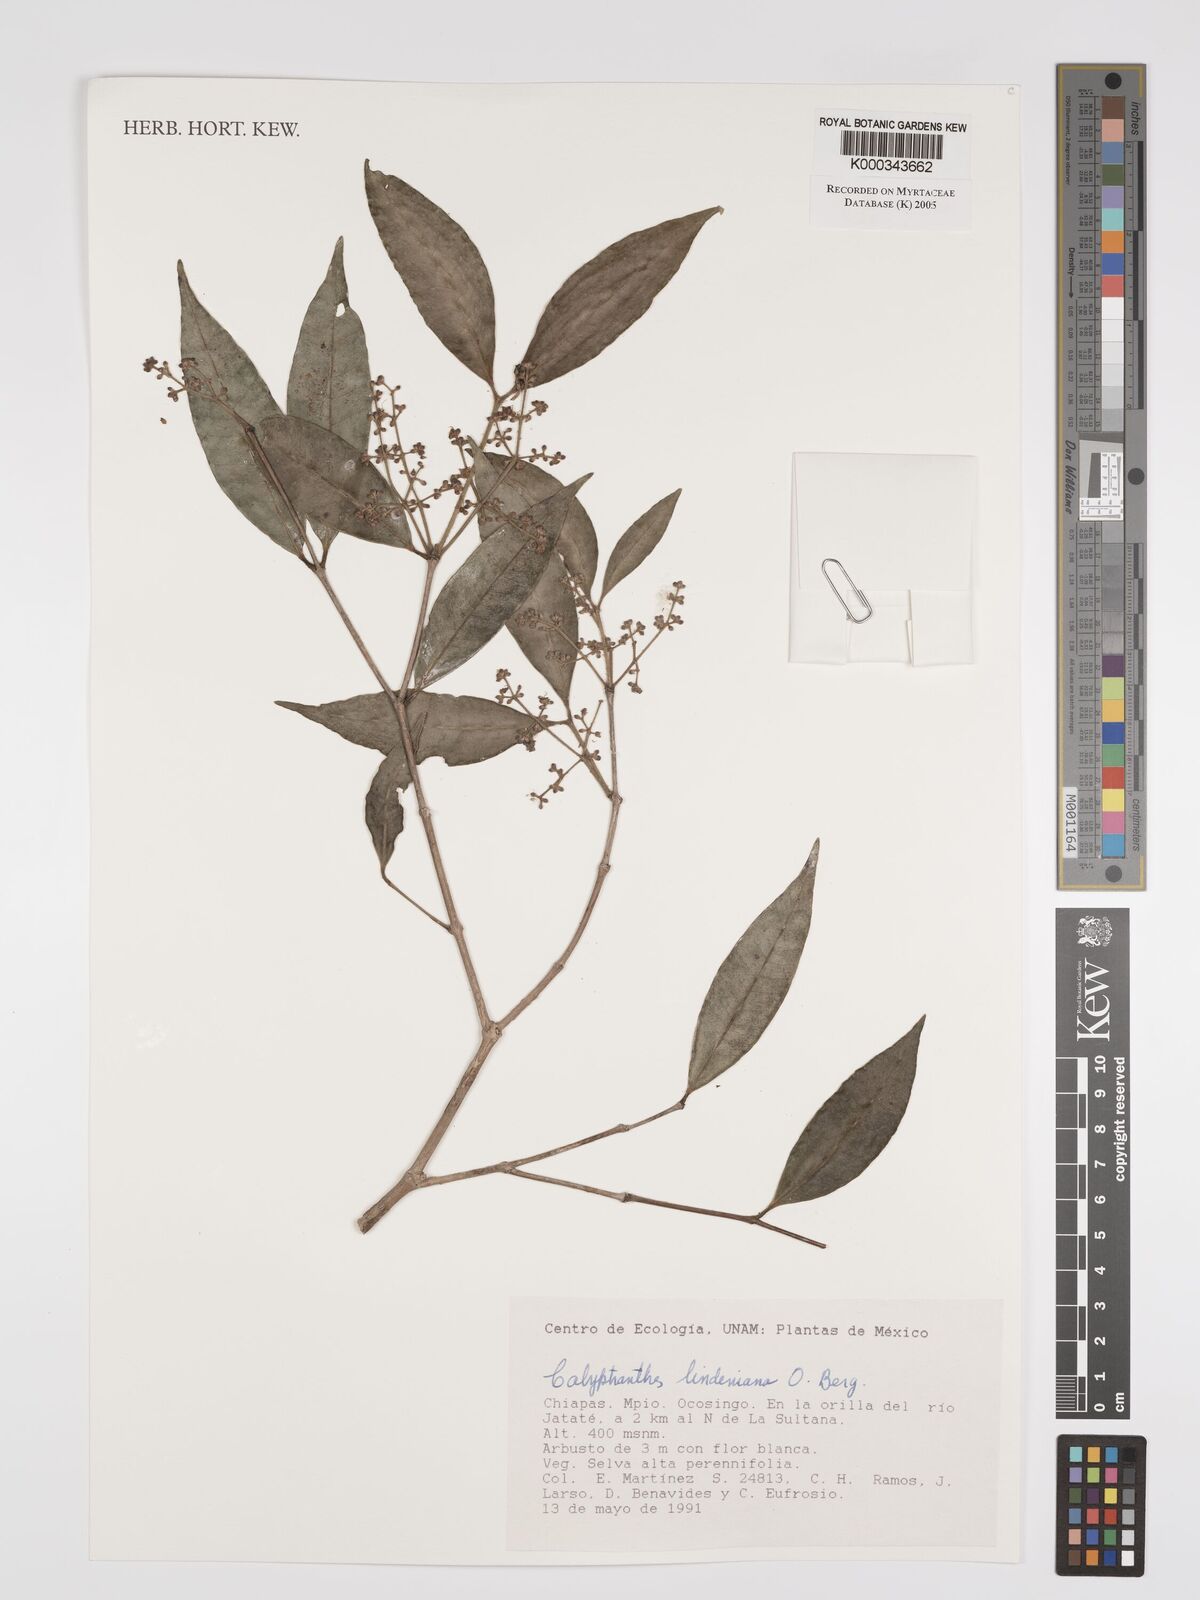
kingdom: Plantae
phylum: Tracheophyta
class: Magnoliopsida
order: Myrtales
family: Myrtaceae
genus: Myrcia
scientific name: Myrcia neolindeniana
